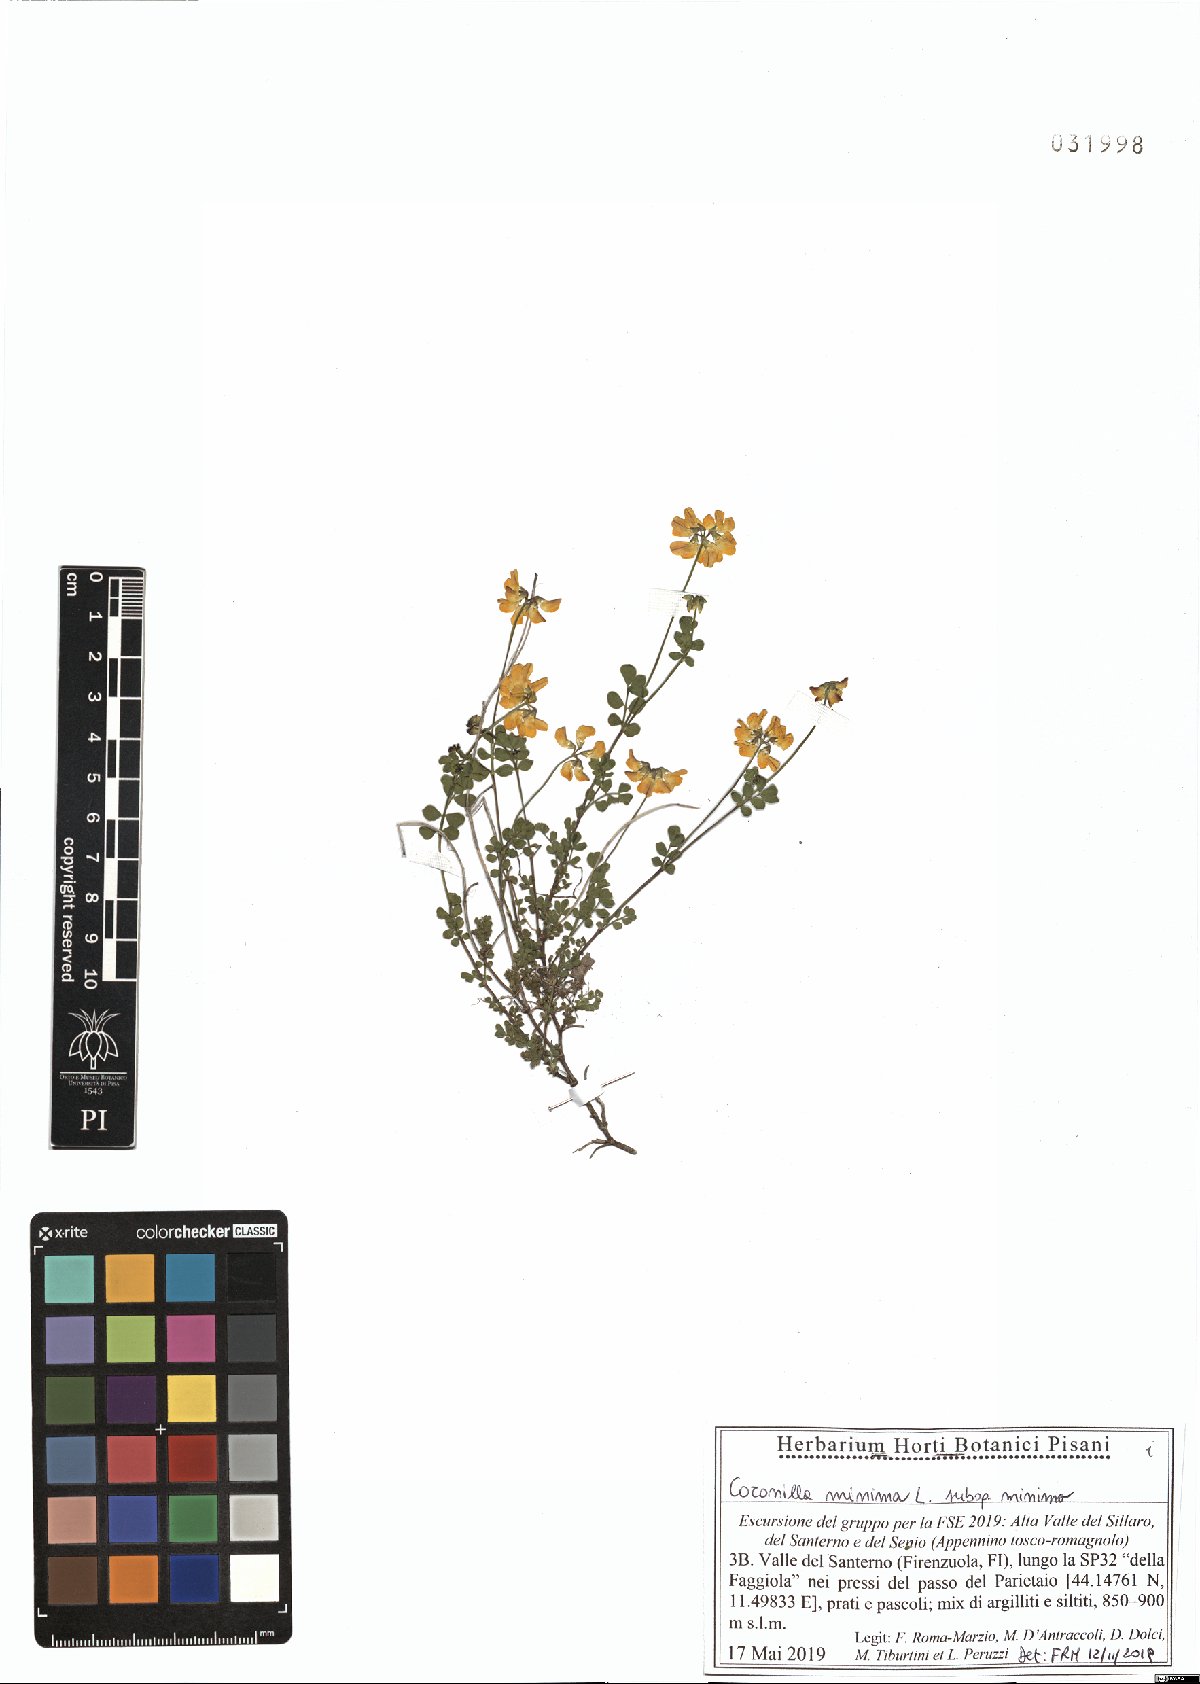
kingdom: Plantae
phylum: Tracheophyta
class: Magnoliopsida
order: Fabales
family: Fabaceae
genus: Coronilla
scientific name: Coronilla minima
